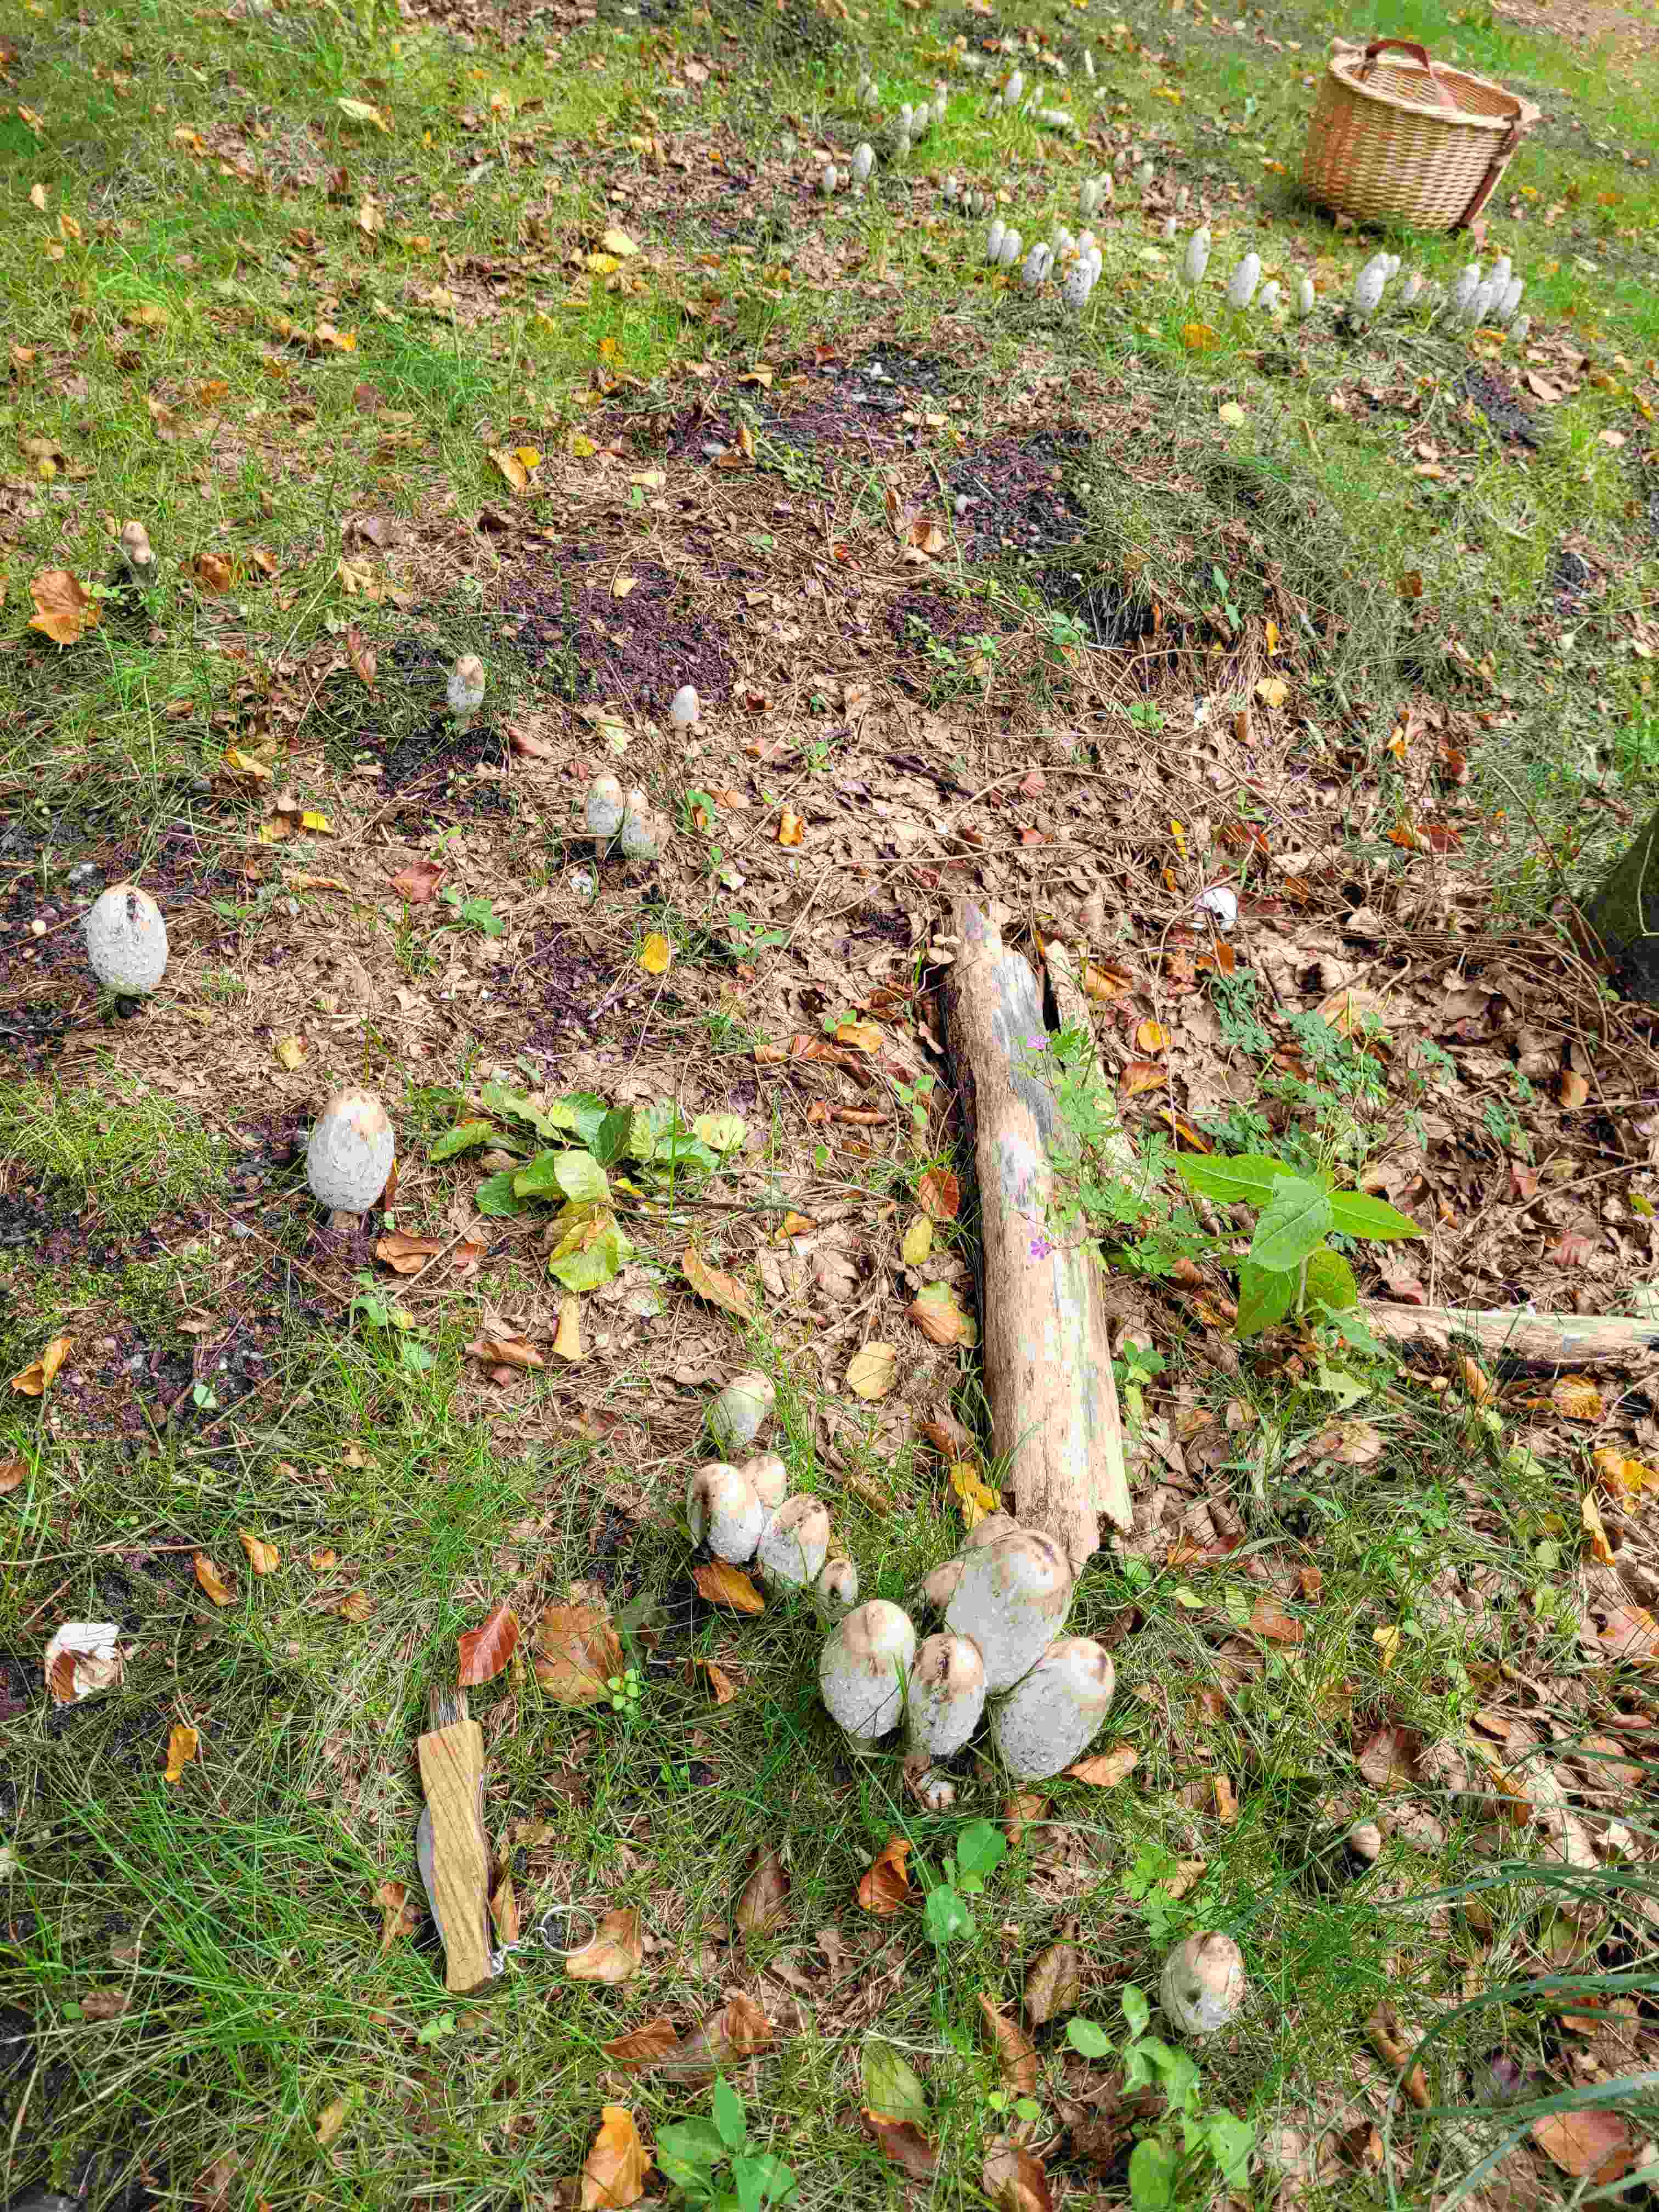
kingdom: Fungi
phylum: Basidiomycota
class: Agaricomycetes
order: Agaricales
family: Agaricaceae
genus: Coprinus
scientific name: Coprinus comatus
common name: stor parykhat
